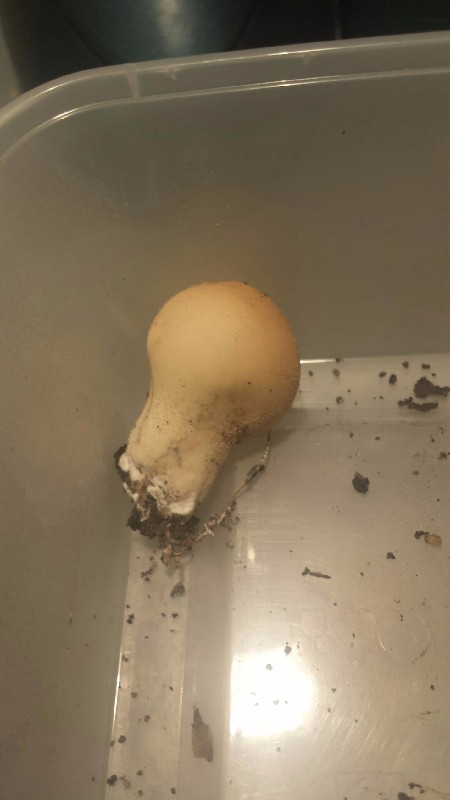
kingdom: Fungi
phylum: Basidiomycota
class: Agaricomycetes
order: Agaricales
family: Lycoperdaceae
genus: Apioperdon
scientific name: Apioperdon pyriforme
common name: pære-støvbold
